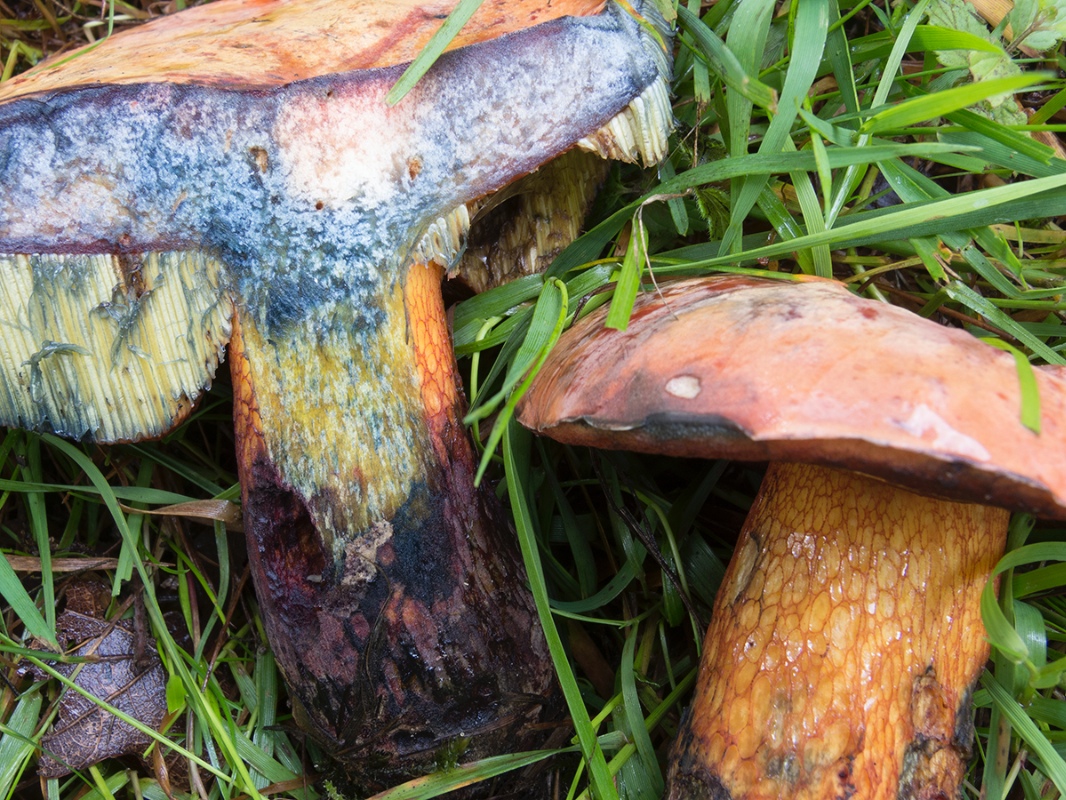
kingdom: Fungi
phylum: Basidiomycota
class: Agaricomycetes
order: Boletales
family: Boletaceae
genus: Suillellus
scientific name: Suillellus luridus
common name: netstokket indigorørhat
